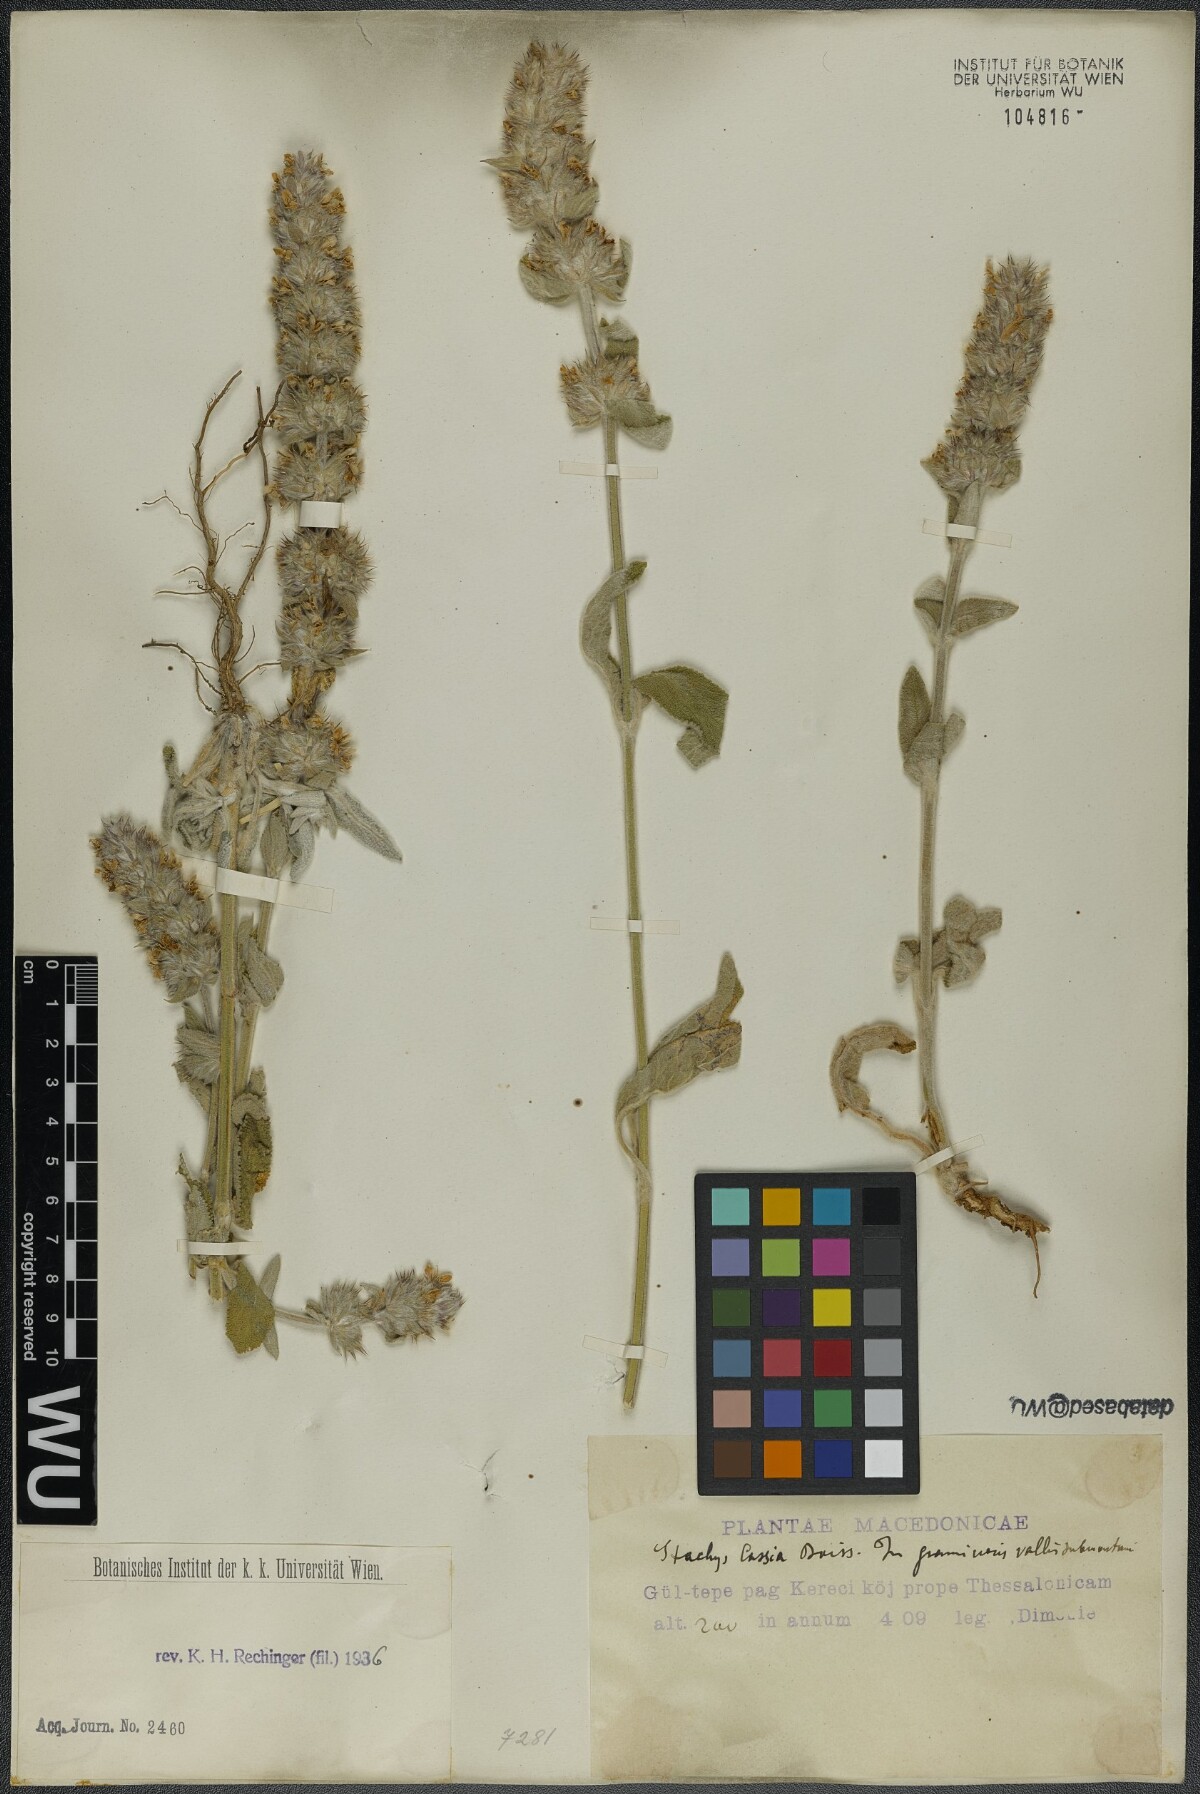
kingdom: Plantae
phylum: Tracheophyta
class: Magnoliopsida
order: Lamiales
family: Lamiaceae
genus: Stachys
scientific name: Stachys cretica
